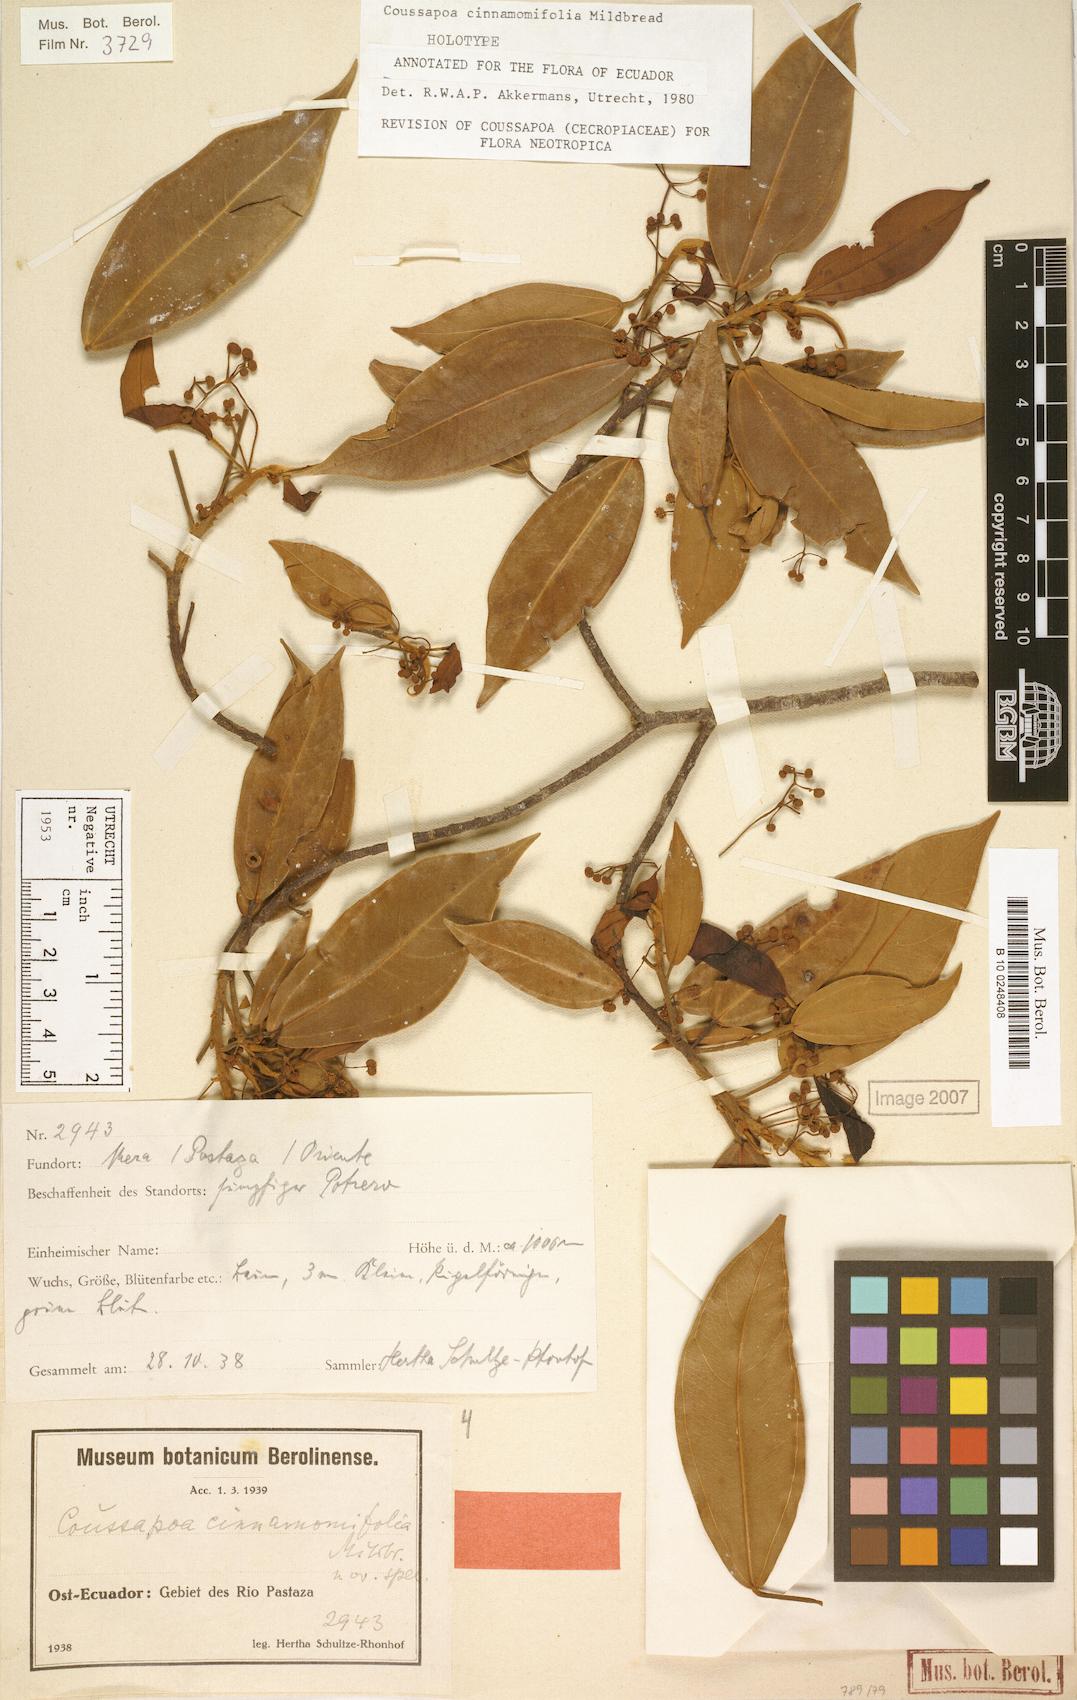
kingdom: Plantae
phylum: Tracheophyta
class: Magnoliopsida
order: Rosales
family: Urticaceae
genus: Coussapoa
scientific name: Coussapoa cinnamomifolia
